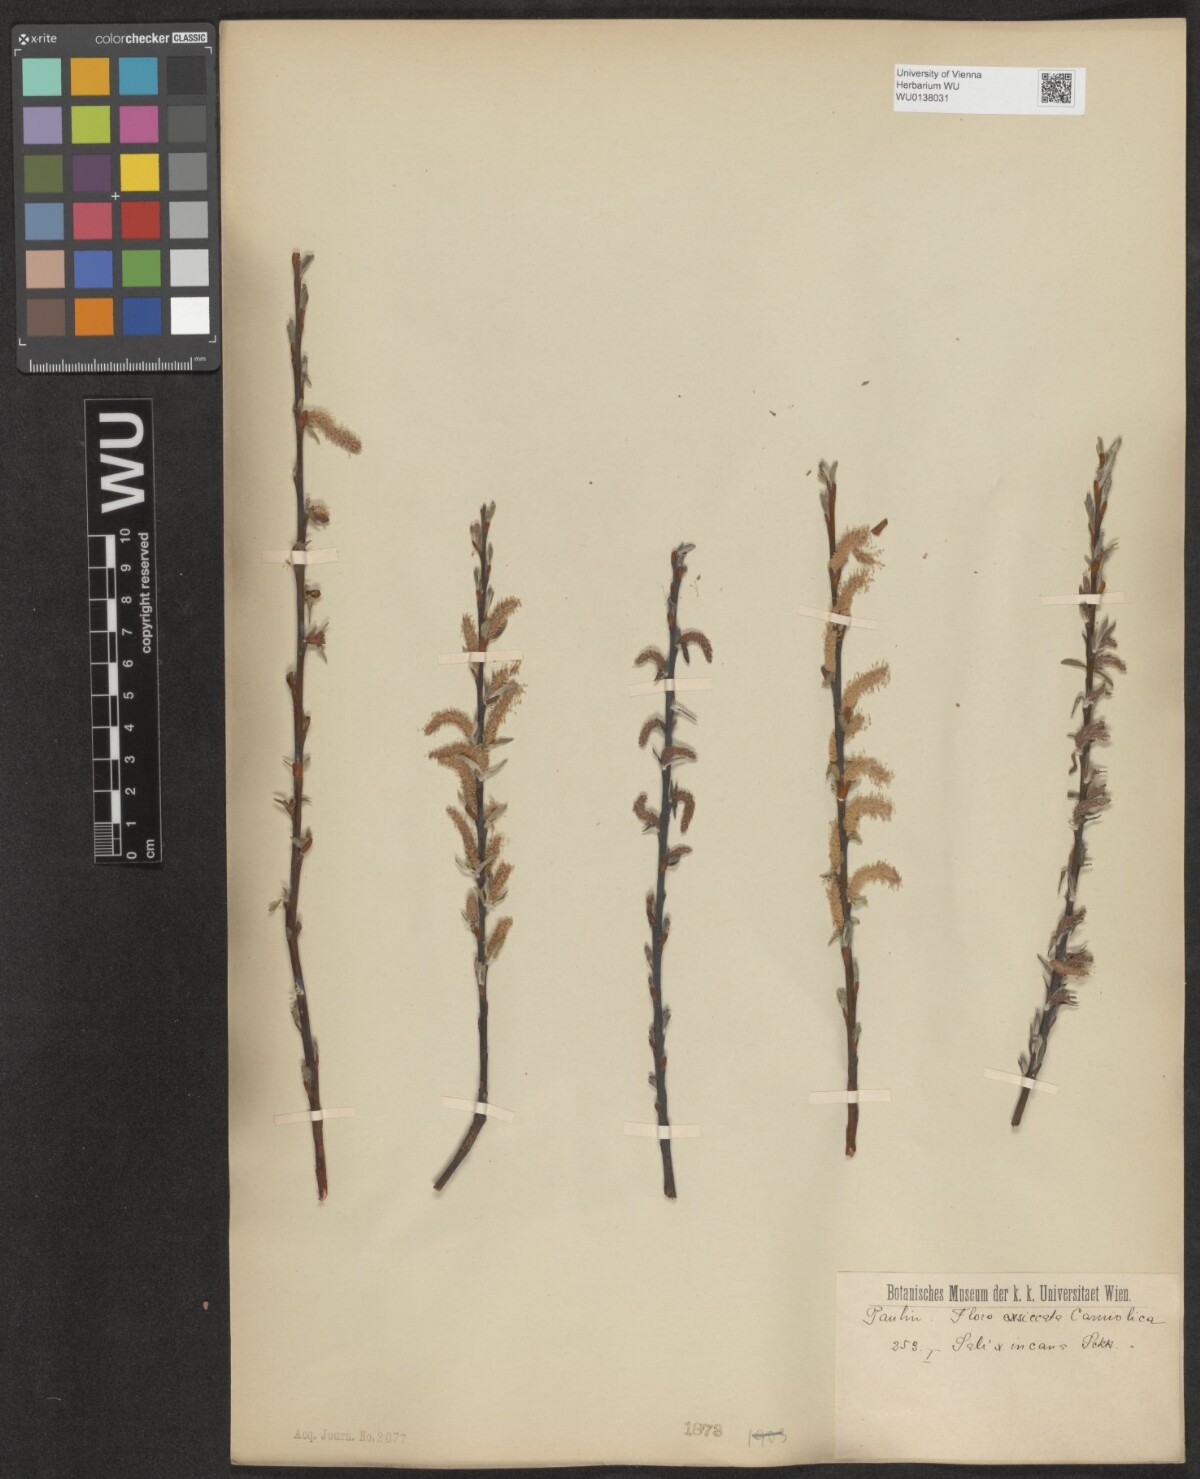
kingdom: Plantae
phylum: Tracheophyta
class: Magnoliopsida
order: Malpighiales
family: Salicaceae
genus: Salix
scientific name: Salix eleagnos
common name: Elaeagnus willow
